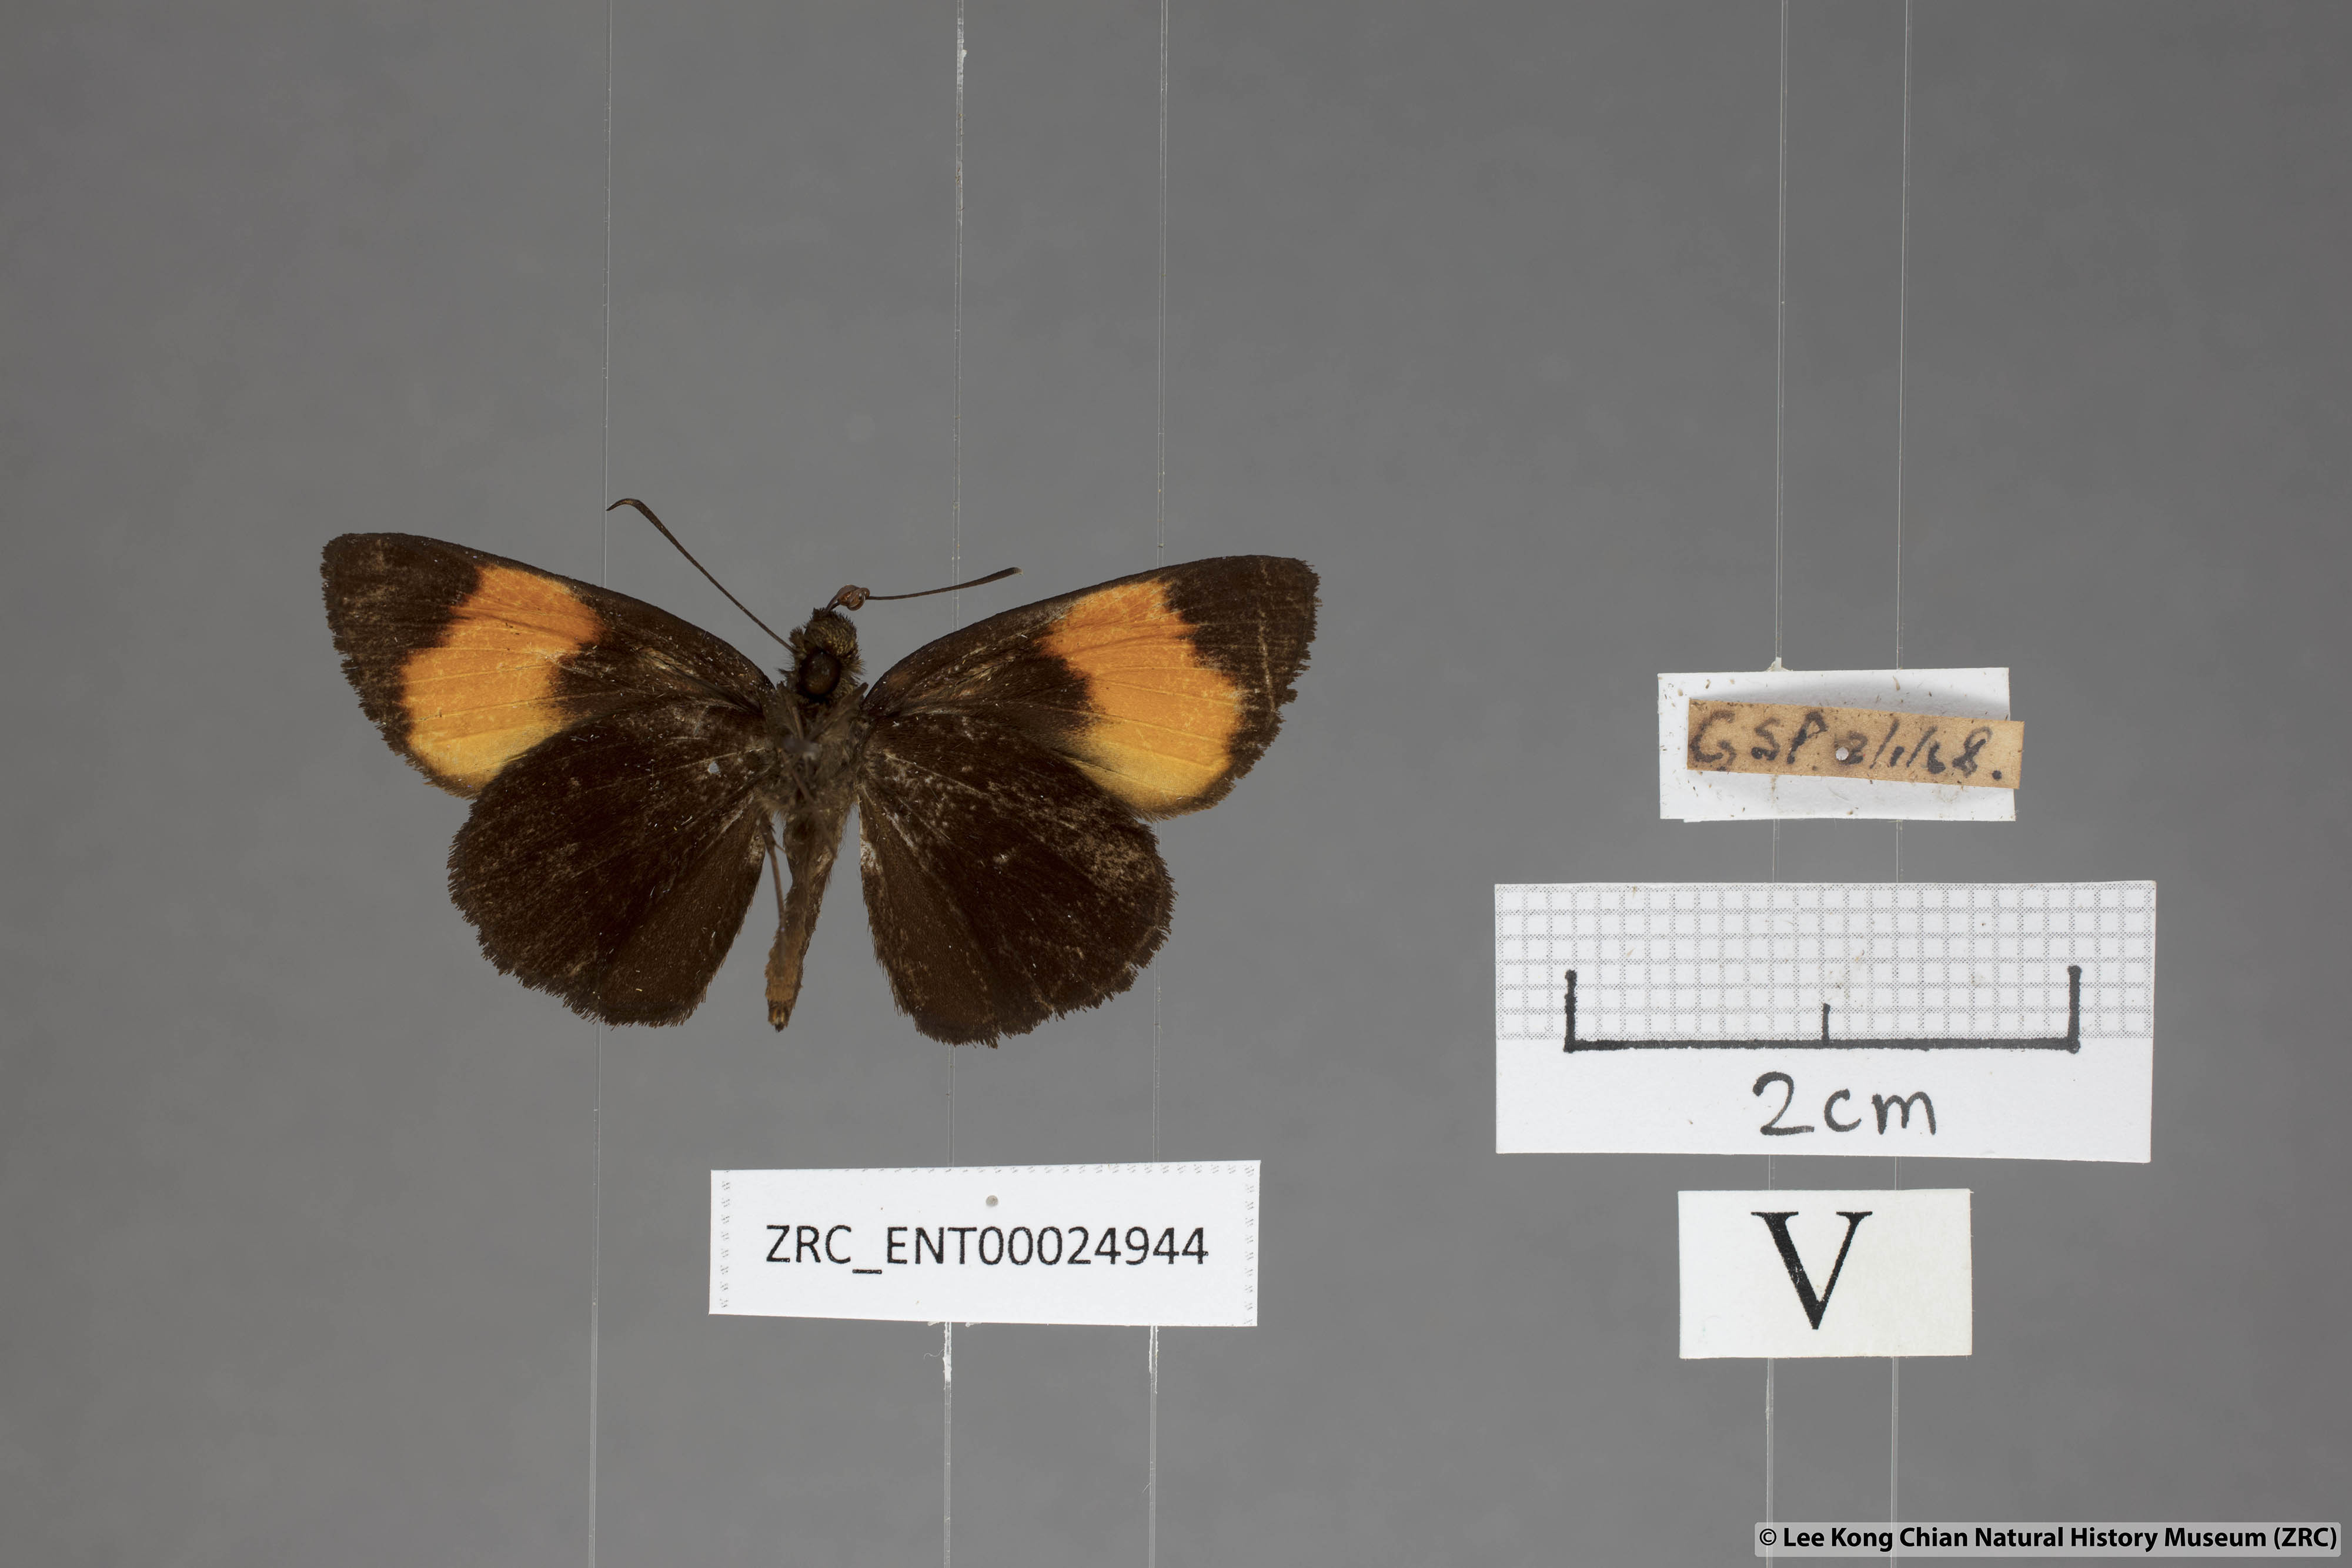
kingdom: Animalia
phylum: Arthropoda
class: Insecta
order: Lepidoptera
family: Hesperiidae
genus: Koruthaialos
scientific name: Koruthaialos sindu
